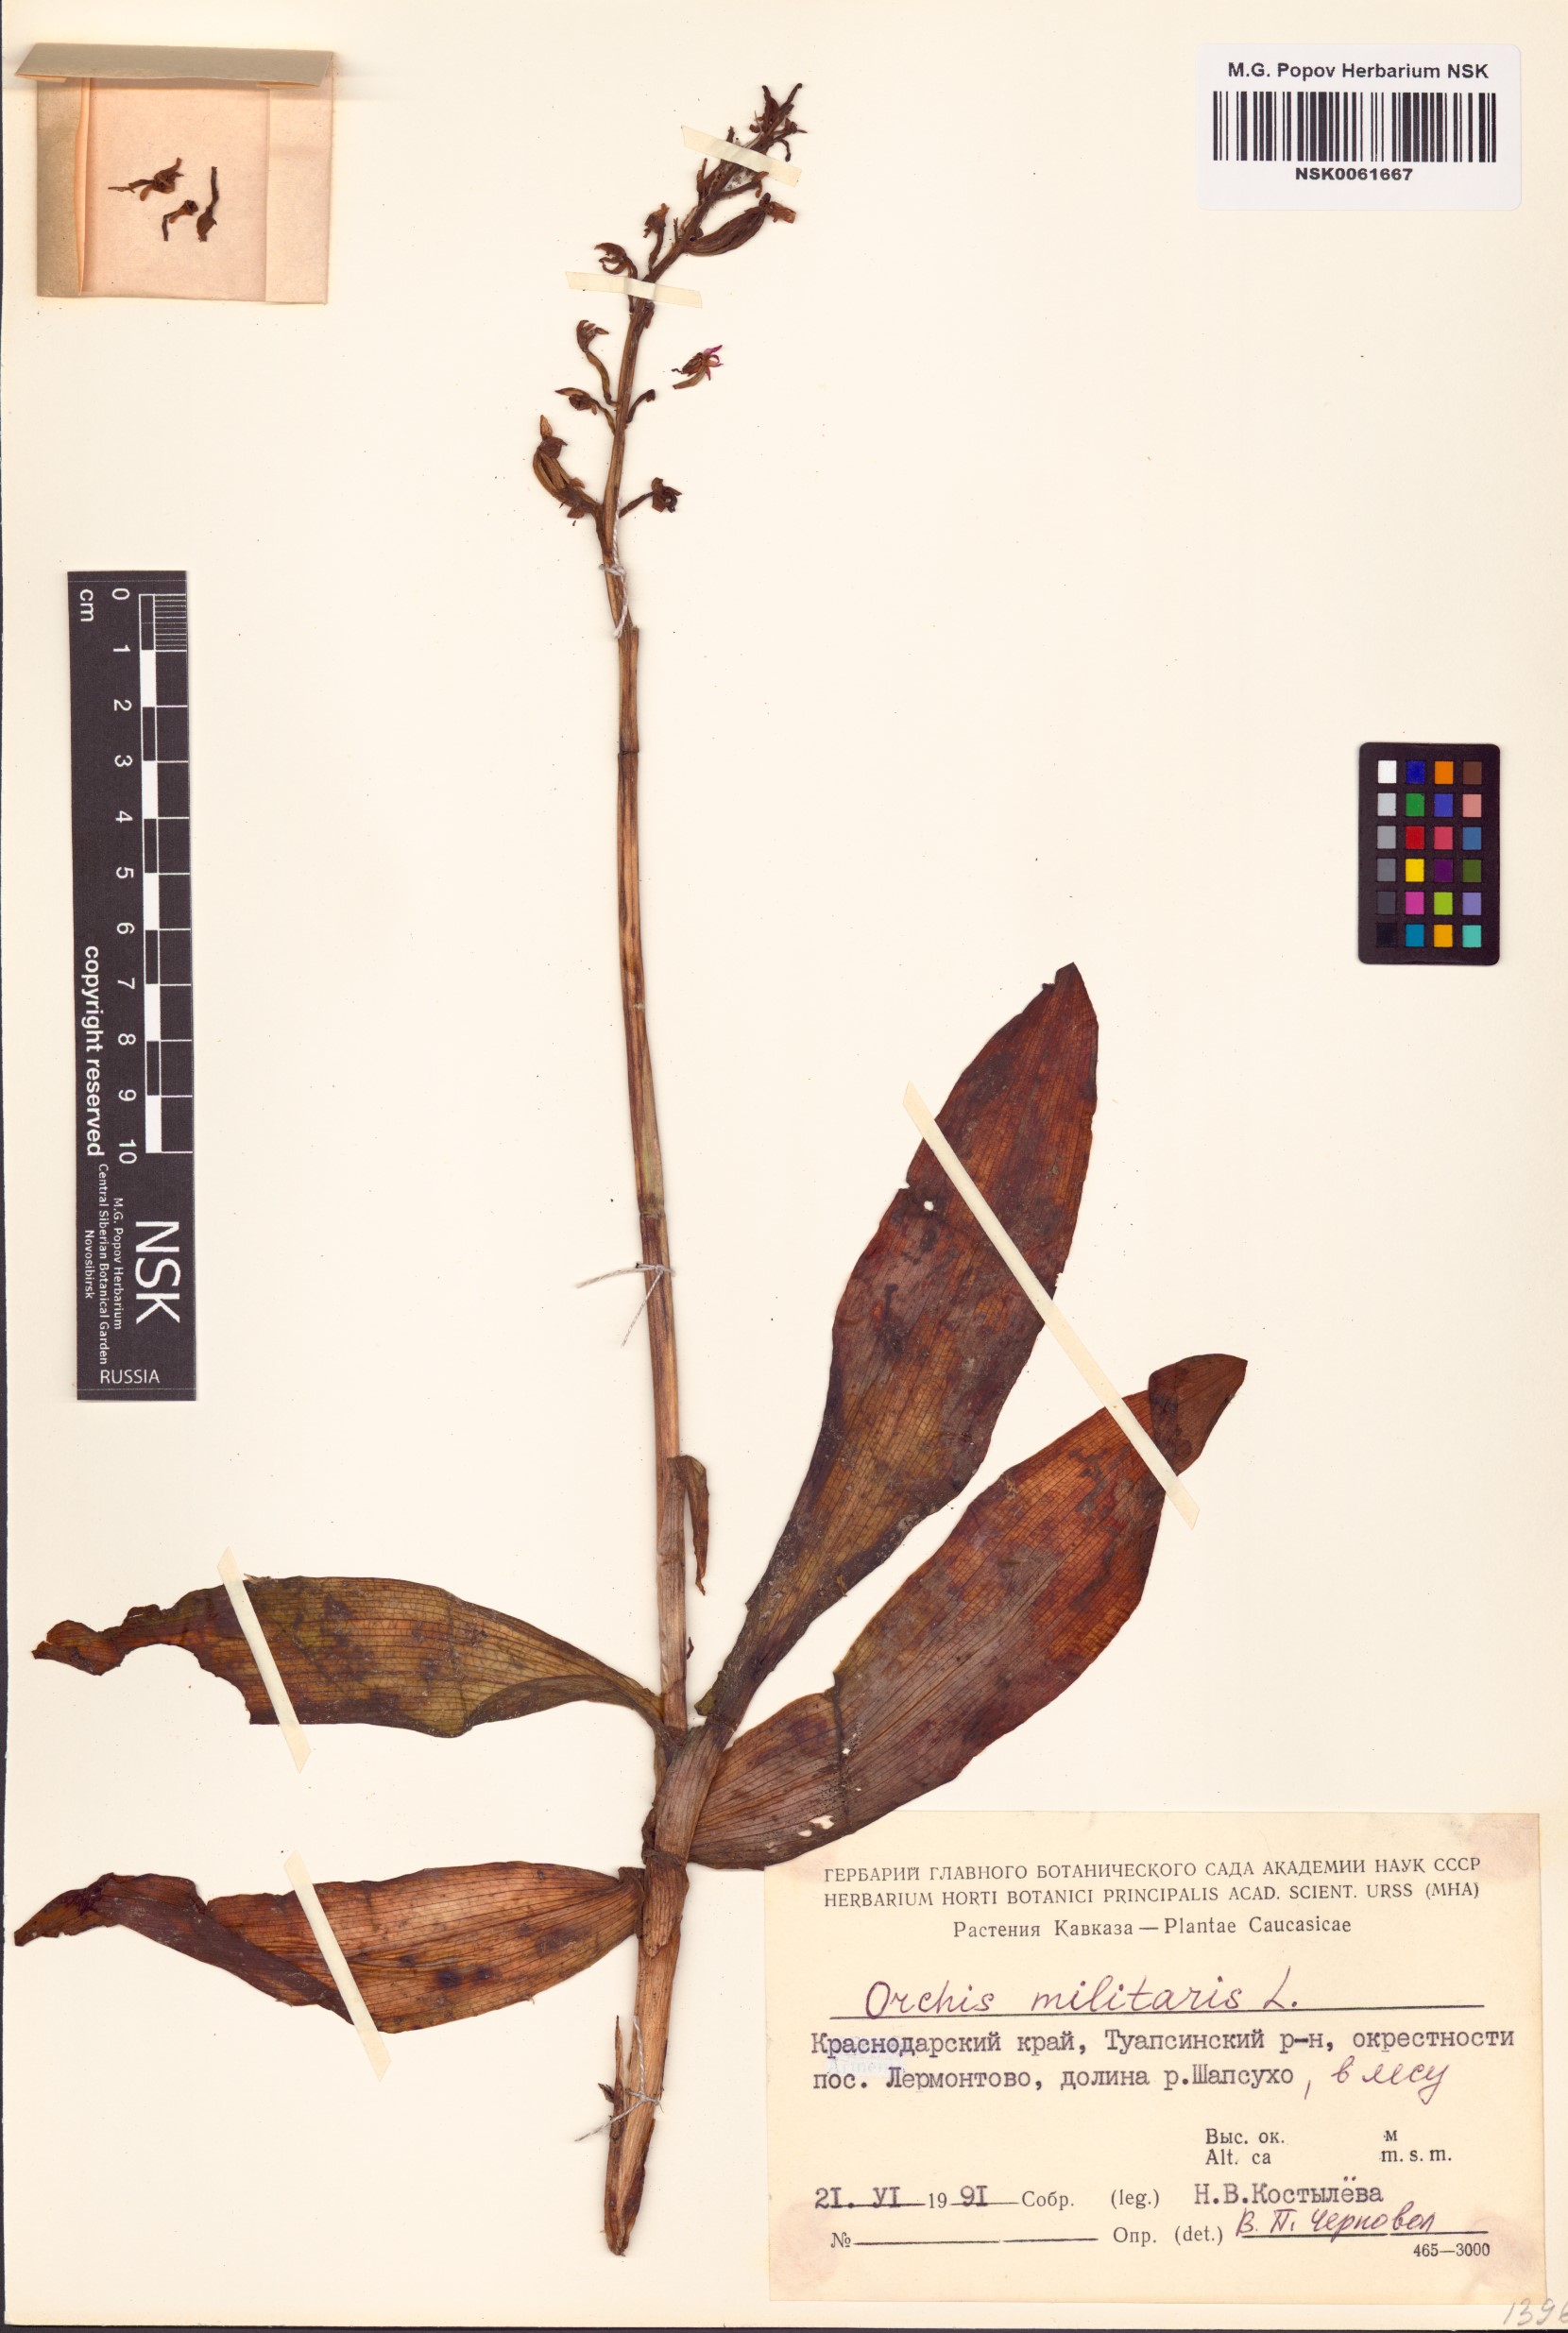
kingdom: Plantae
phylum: Tracheophyta
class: Liliopsida
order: Asparagales
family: Orchidaceae
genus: Orchis
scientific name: Orchis militaris
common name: Military orchid
